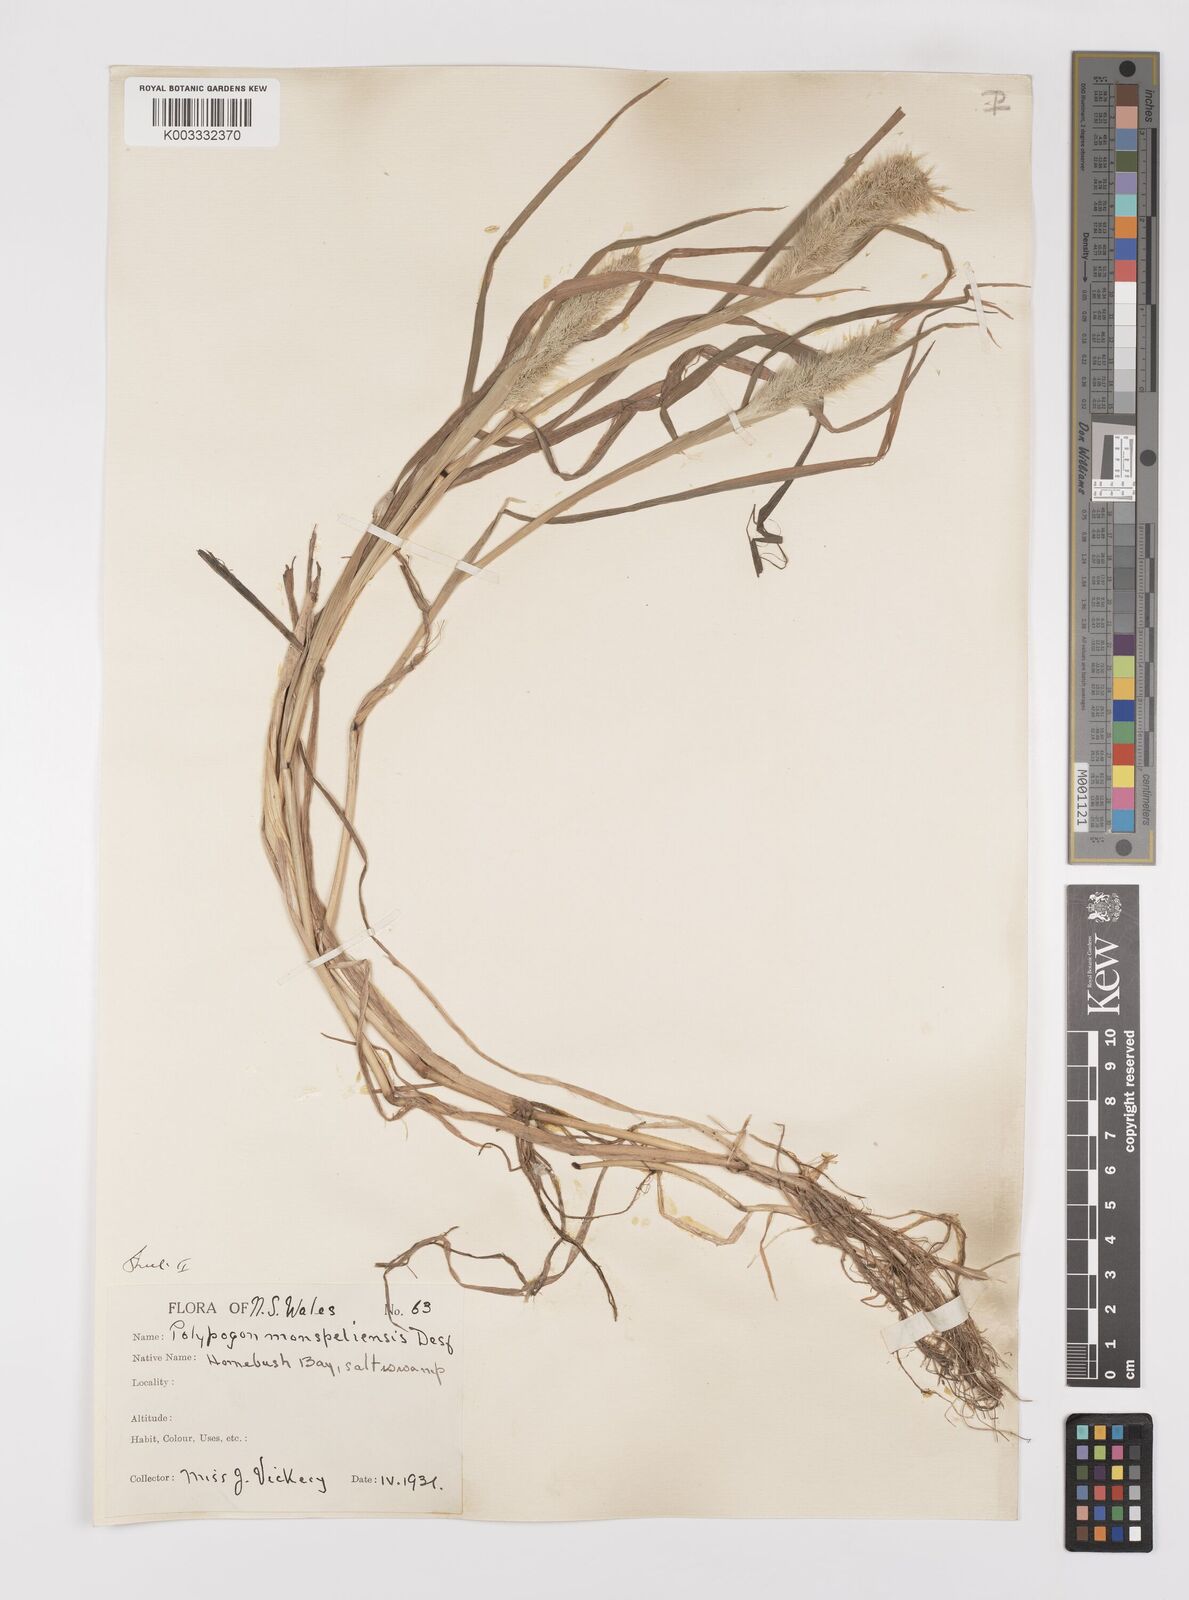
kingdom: Plantae
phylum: Tracheophyta
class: Liliopsida
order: Poales
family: Poaceae
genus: Polypogon
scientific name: Polypogon monspeliensis
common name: Annual rabbitsfoot grass
